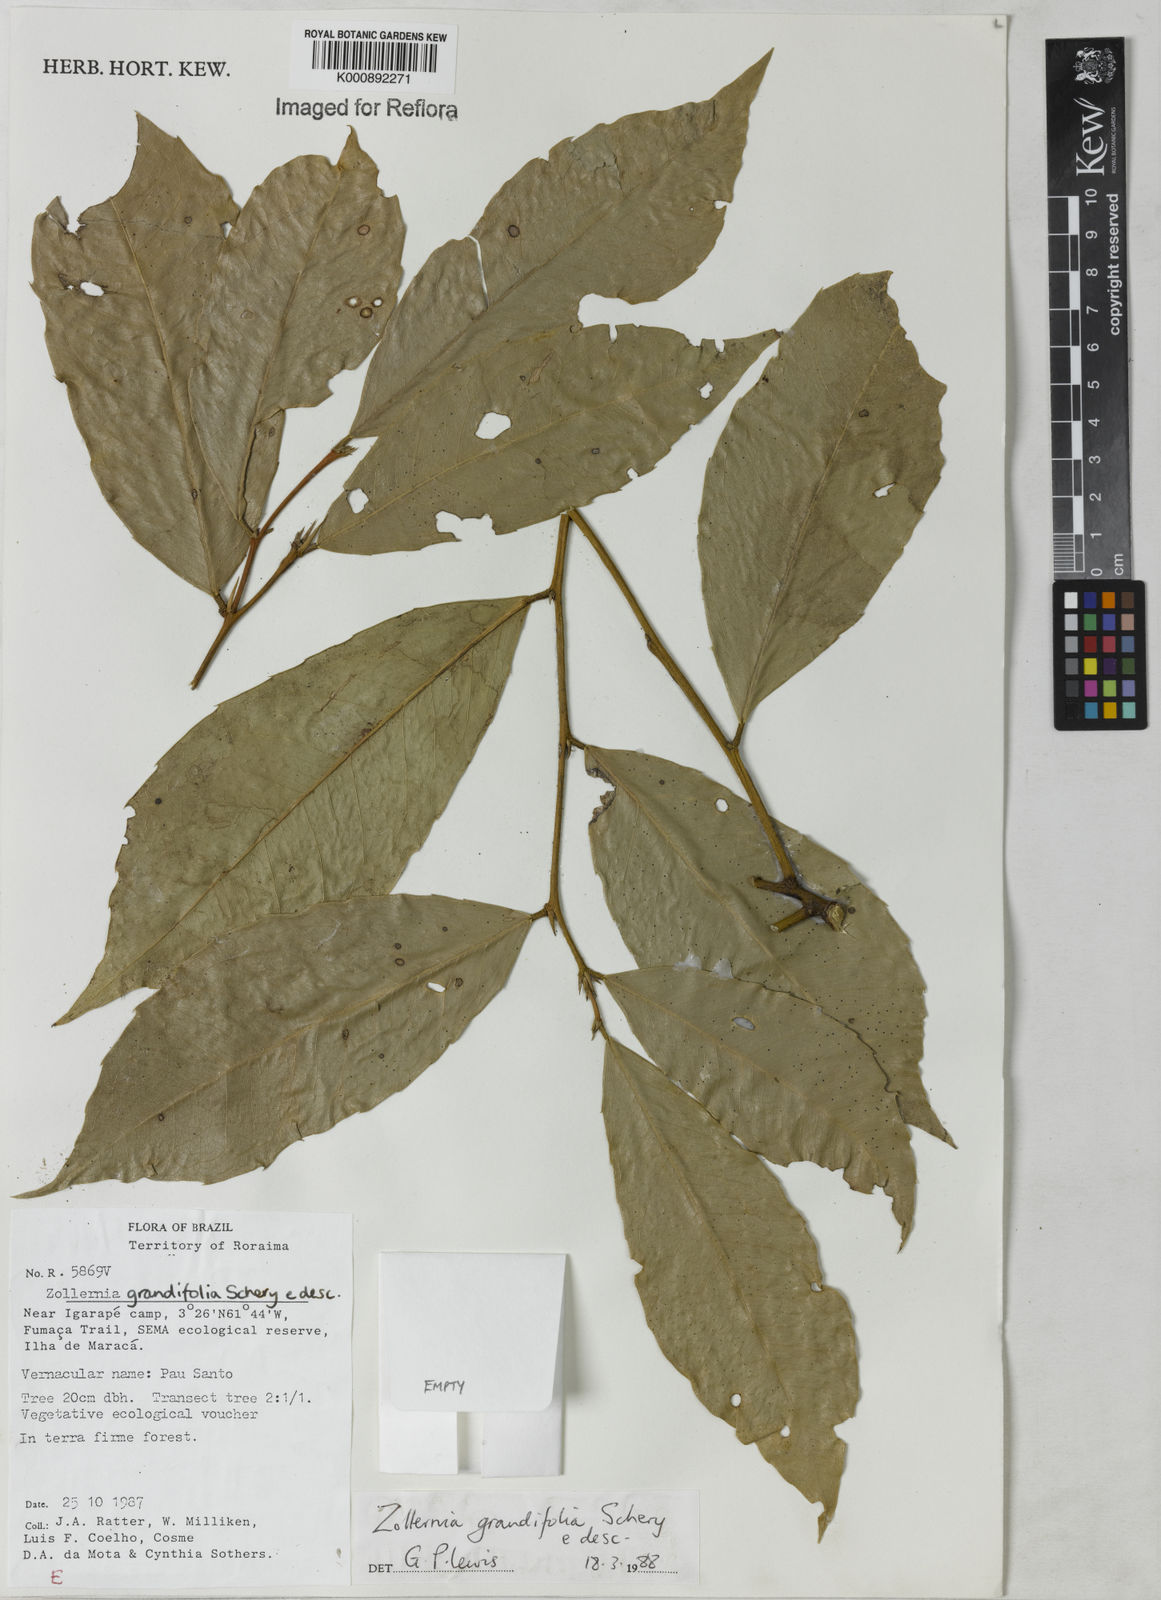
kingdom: Plantae
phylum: Tracheophyta
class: Magnoliopsida
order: Fabales
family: Fabaceae
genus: Zollernia
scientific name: Zollernia grandifolia
